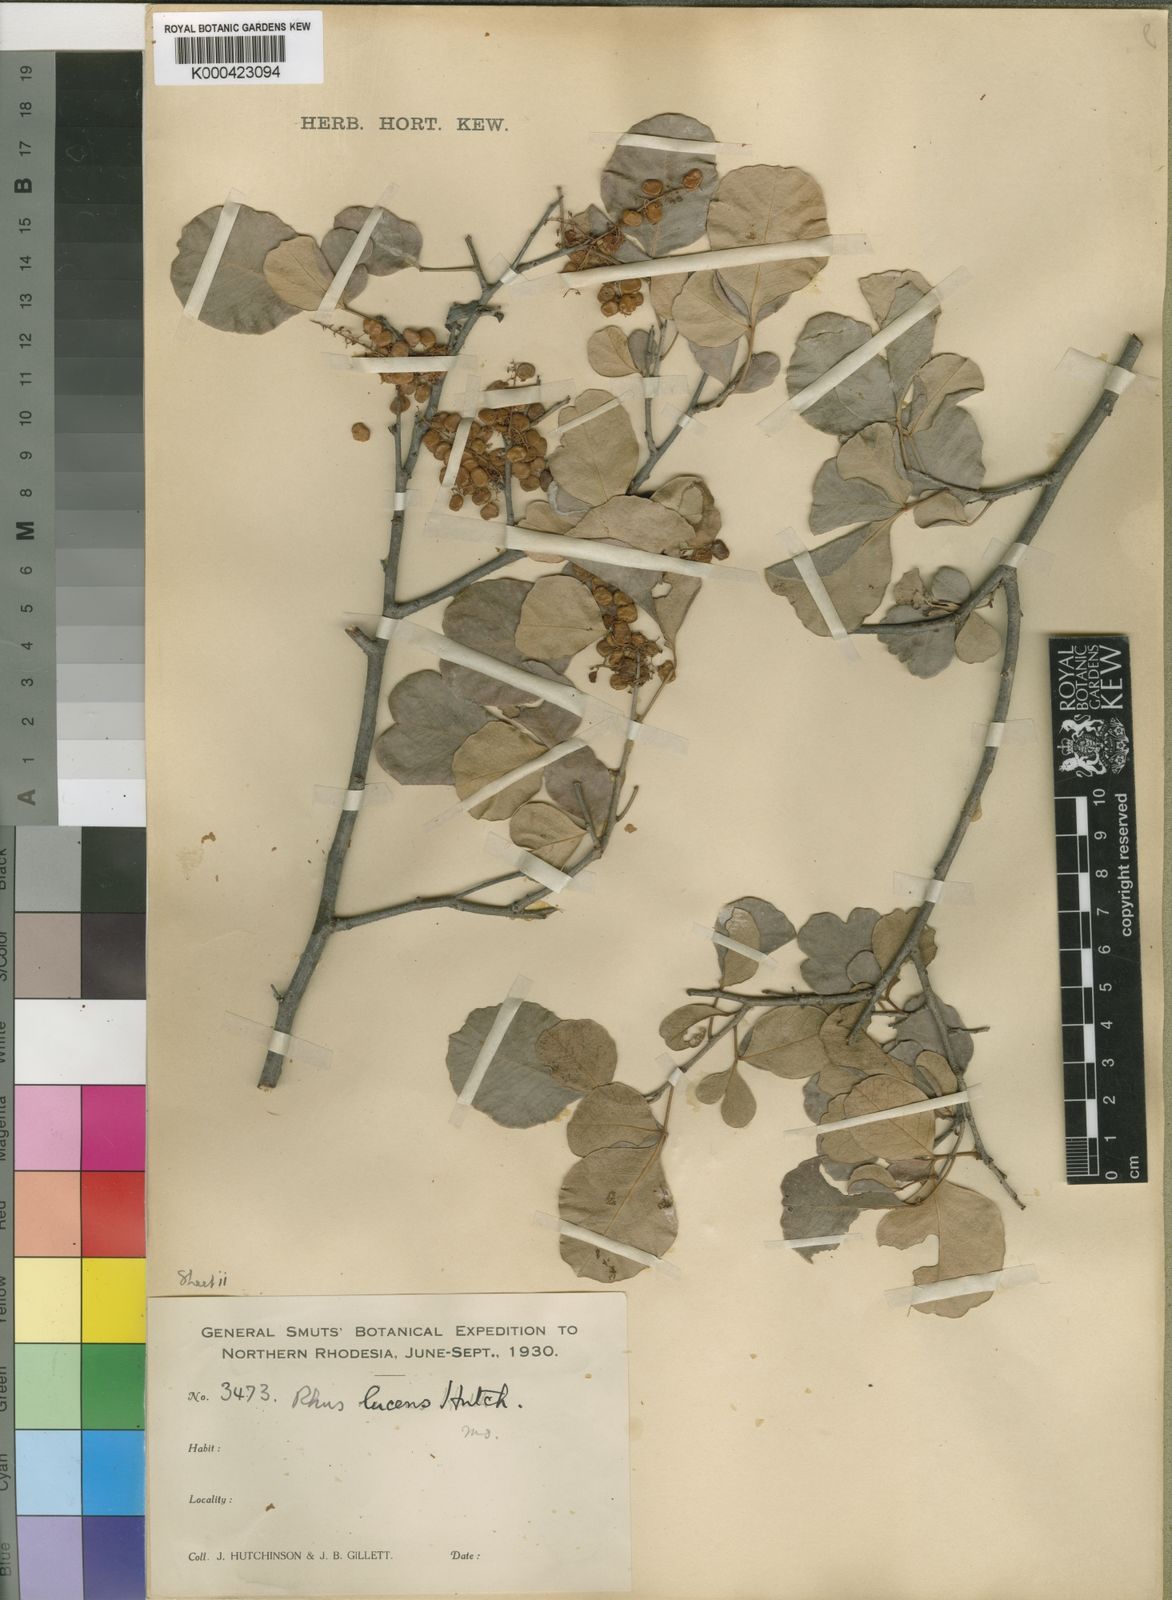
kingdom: Plantae
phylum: Tracheophyta
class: Magnoliopsida
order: Sapindales
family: Anacardiaceae
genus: Searsia
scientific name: Searsia lucens
